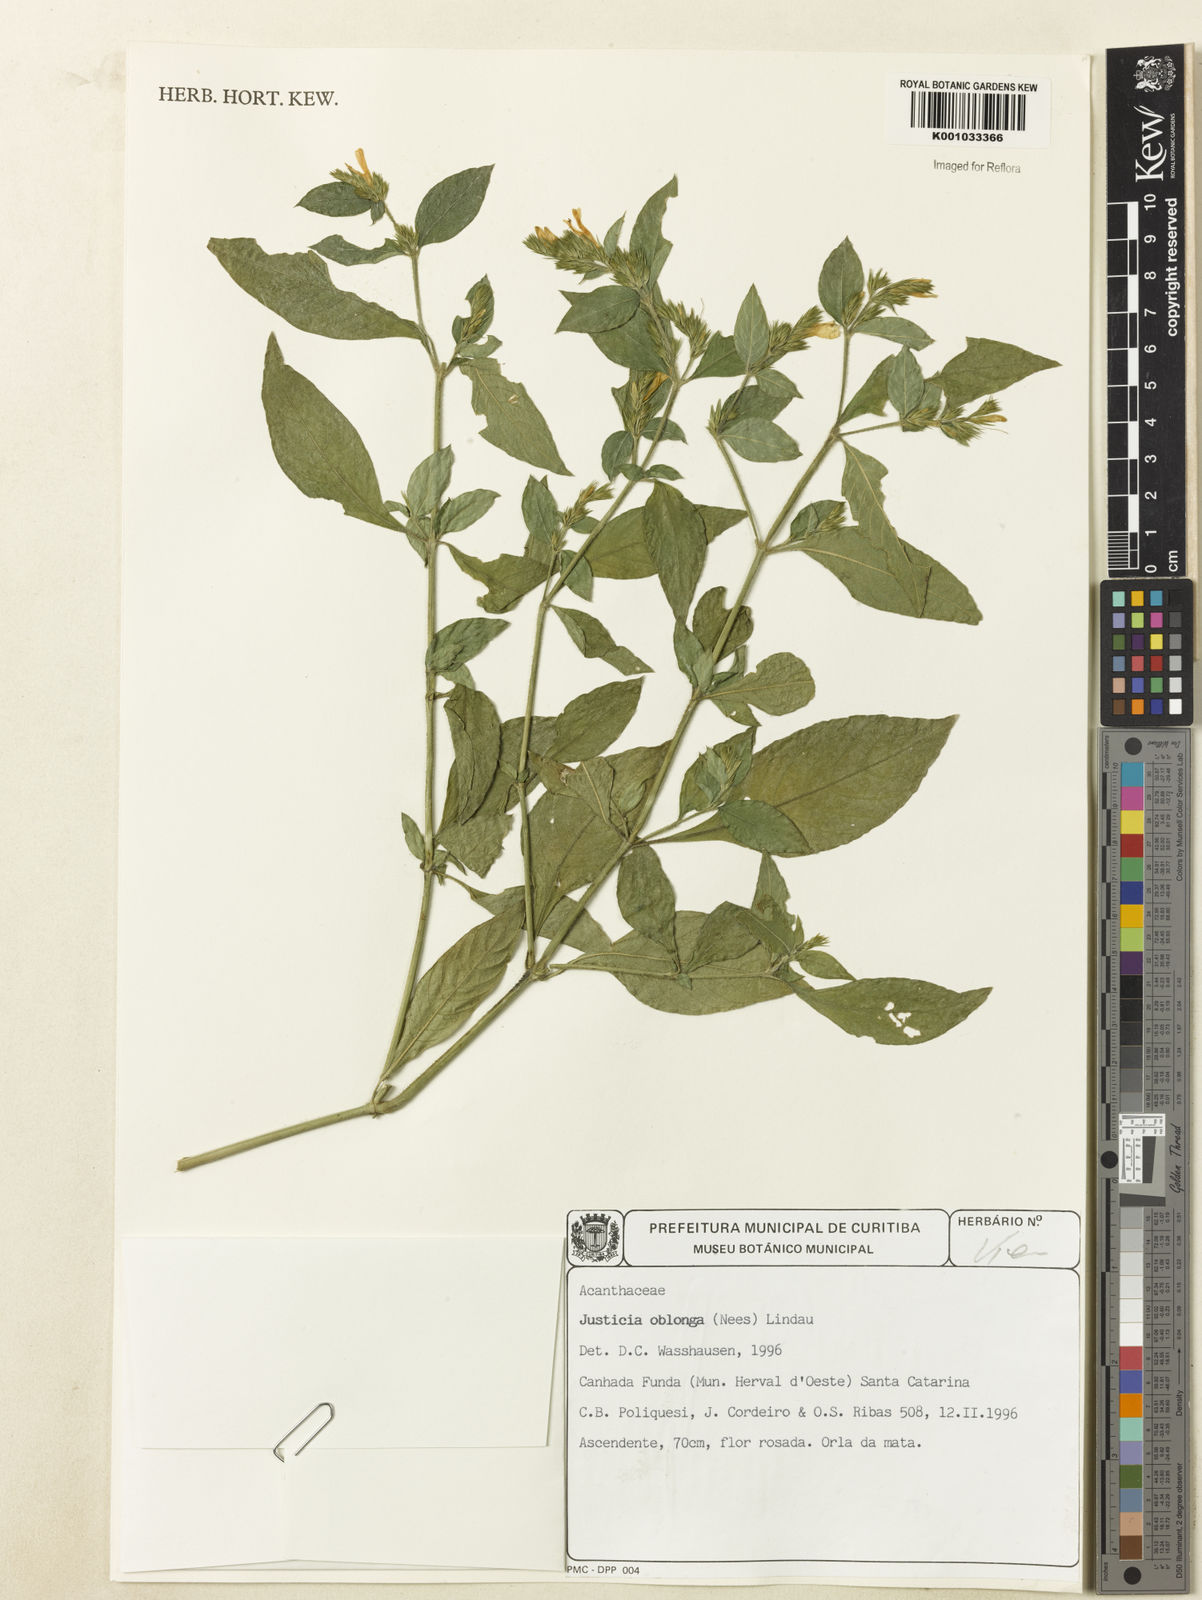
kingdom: Plantae
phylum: Tracheophyta
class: Magnoliopsida
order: Lamiales
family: Acanthaceae
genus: Dianthera
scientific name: Dianthera oblonga
